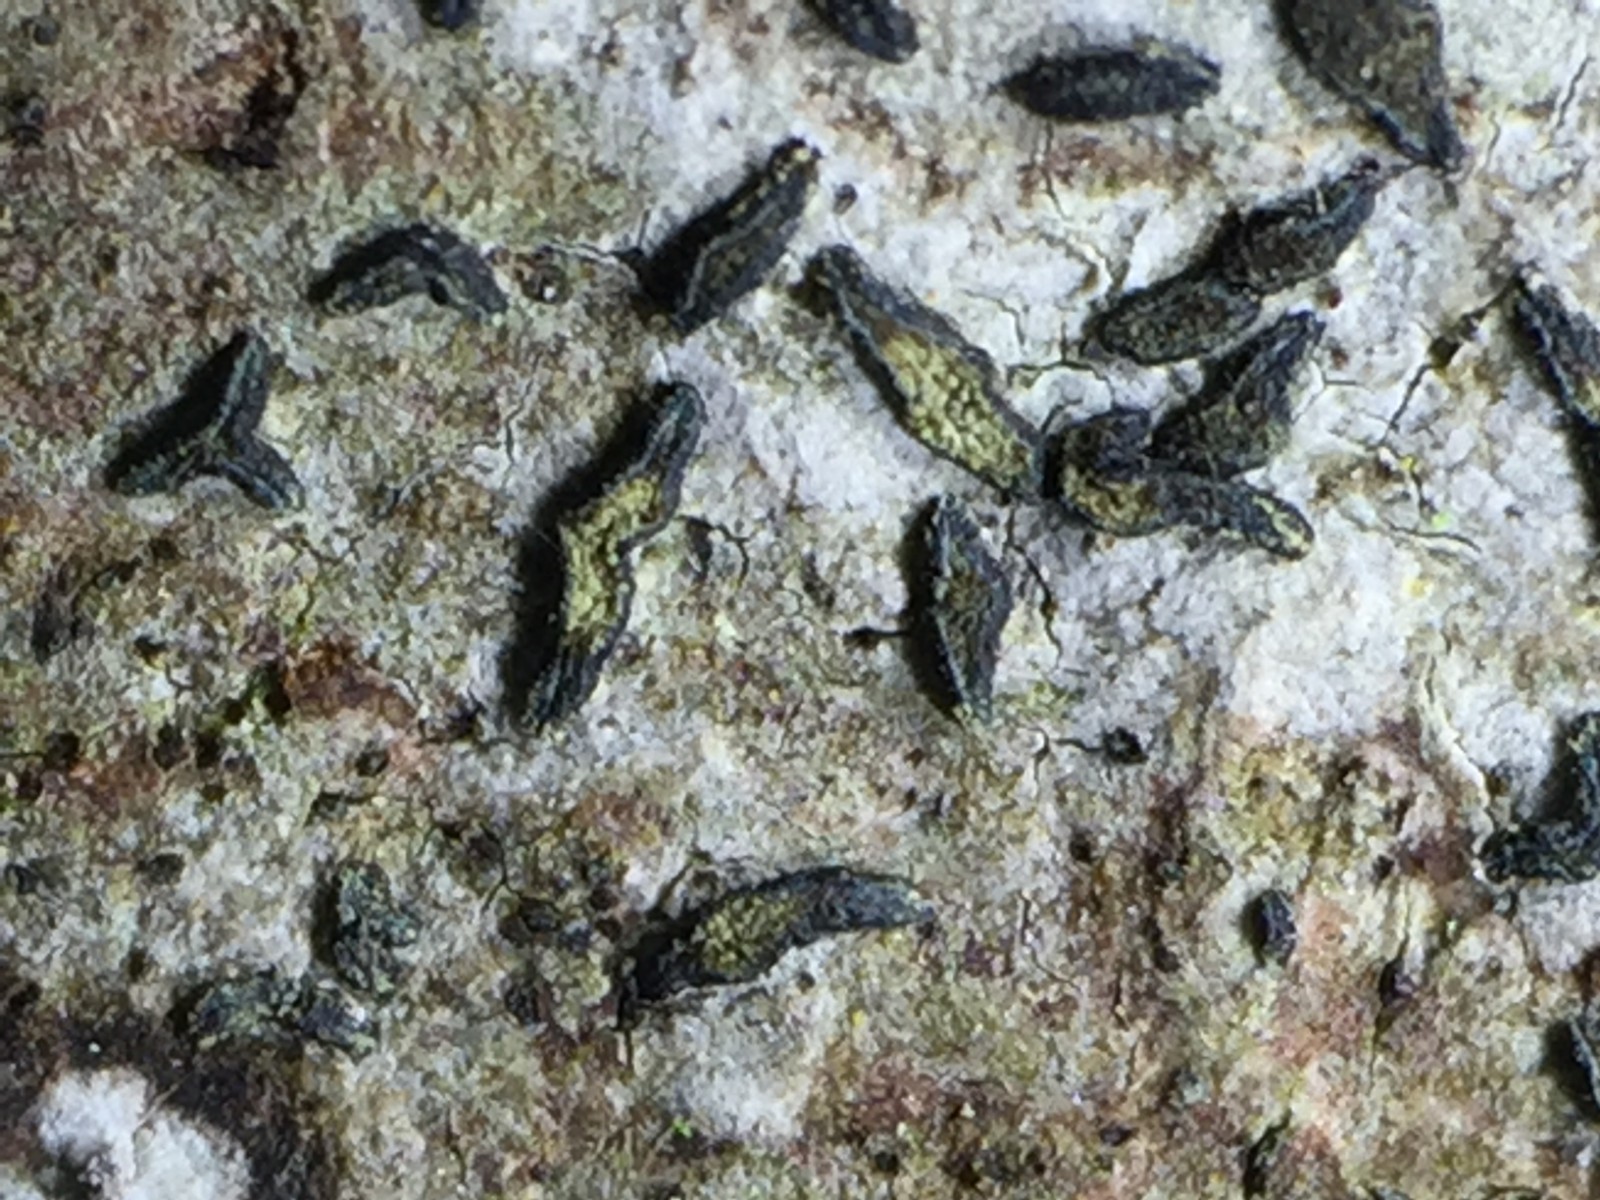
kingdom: Fungi
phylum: Ascomycota
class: Arthoniomycetes
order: Arthoniales
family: Lecanographaceae
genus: Alyxoria
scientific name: Alyxoria varia
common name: almindelig bogstavlav
